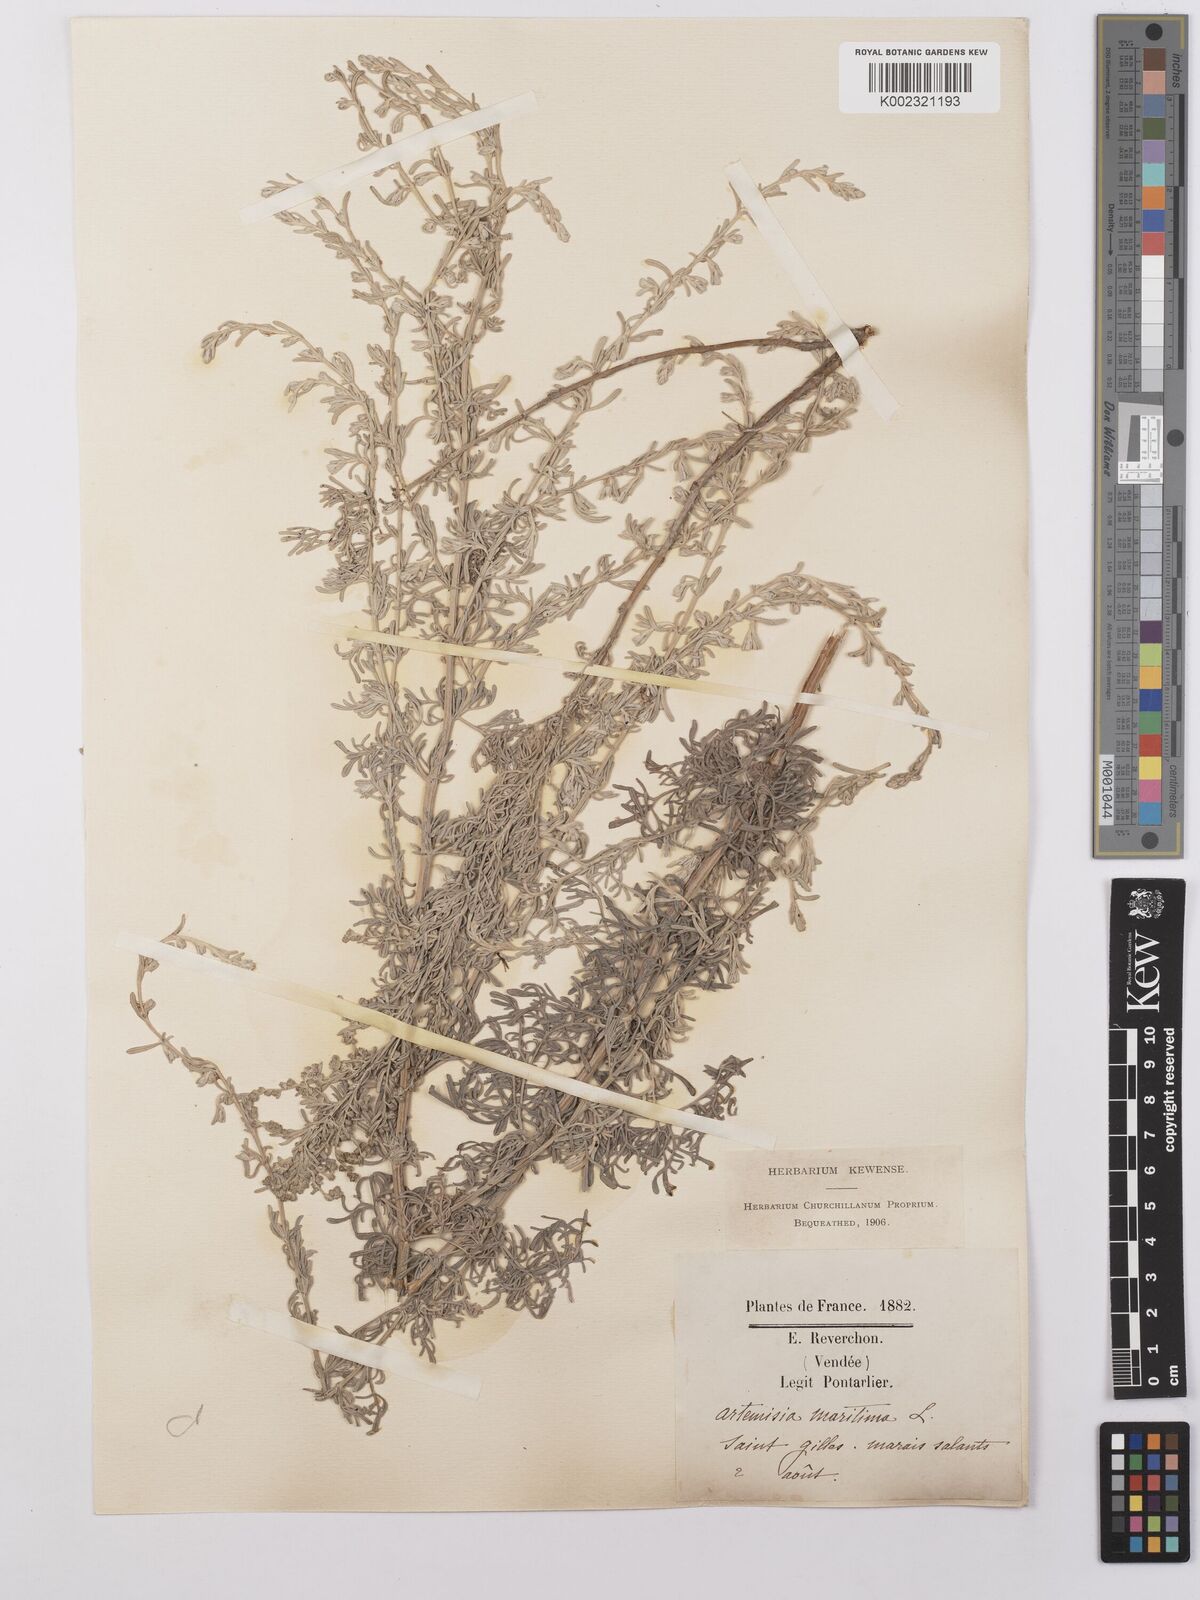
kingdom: Plantae
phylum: Tracheophyta
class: Magnoliopsida
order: Asterales
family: Asteraceae
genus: Artemisia
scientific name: Artemisia maritima
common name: Wormseed
